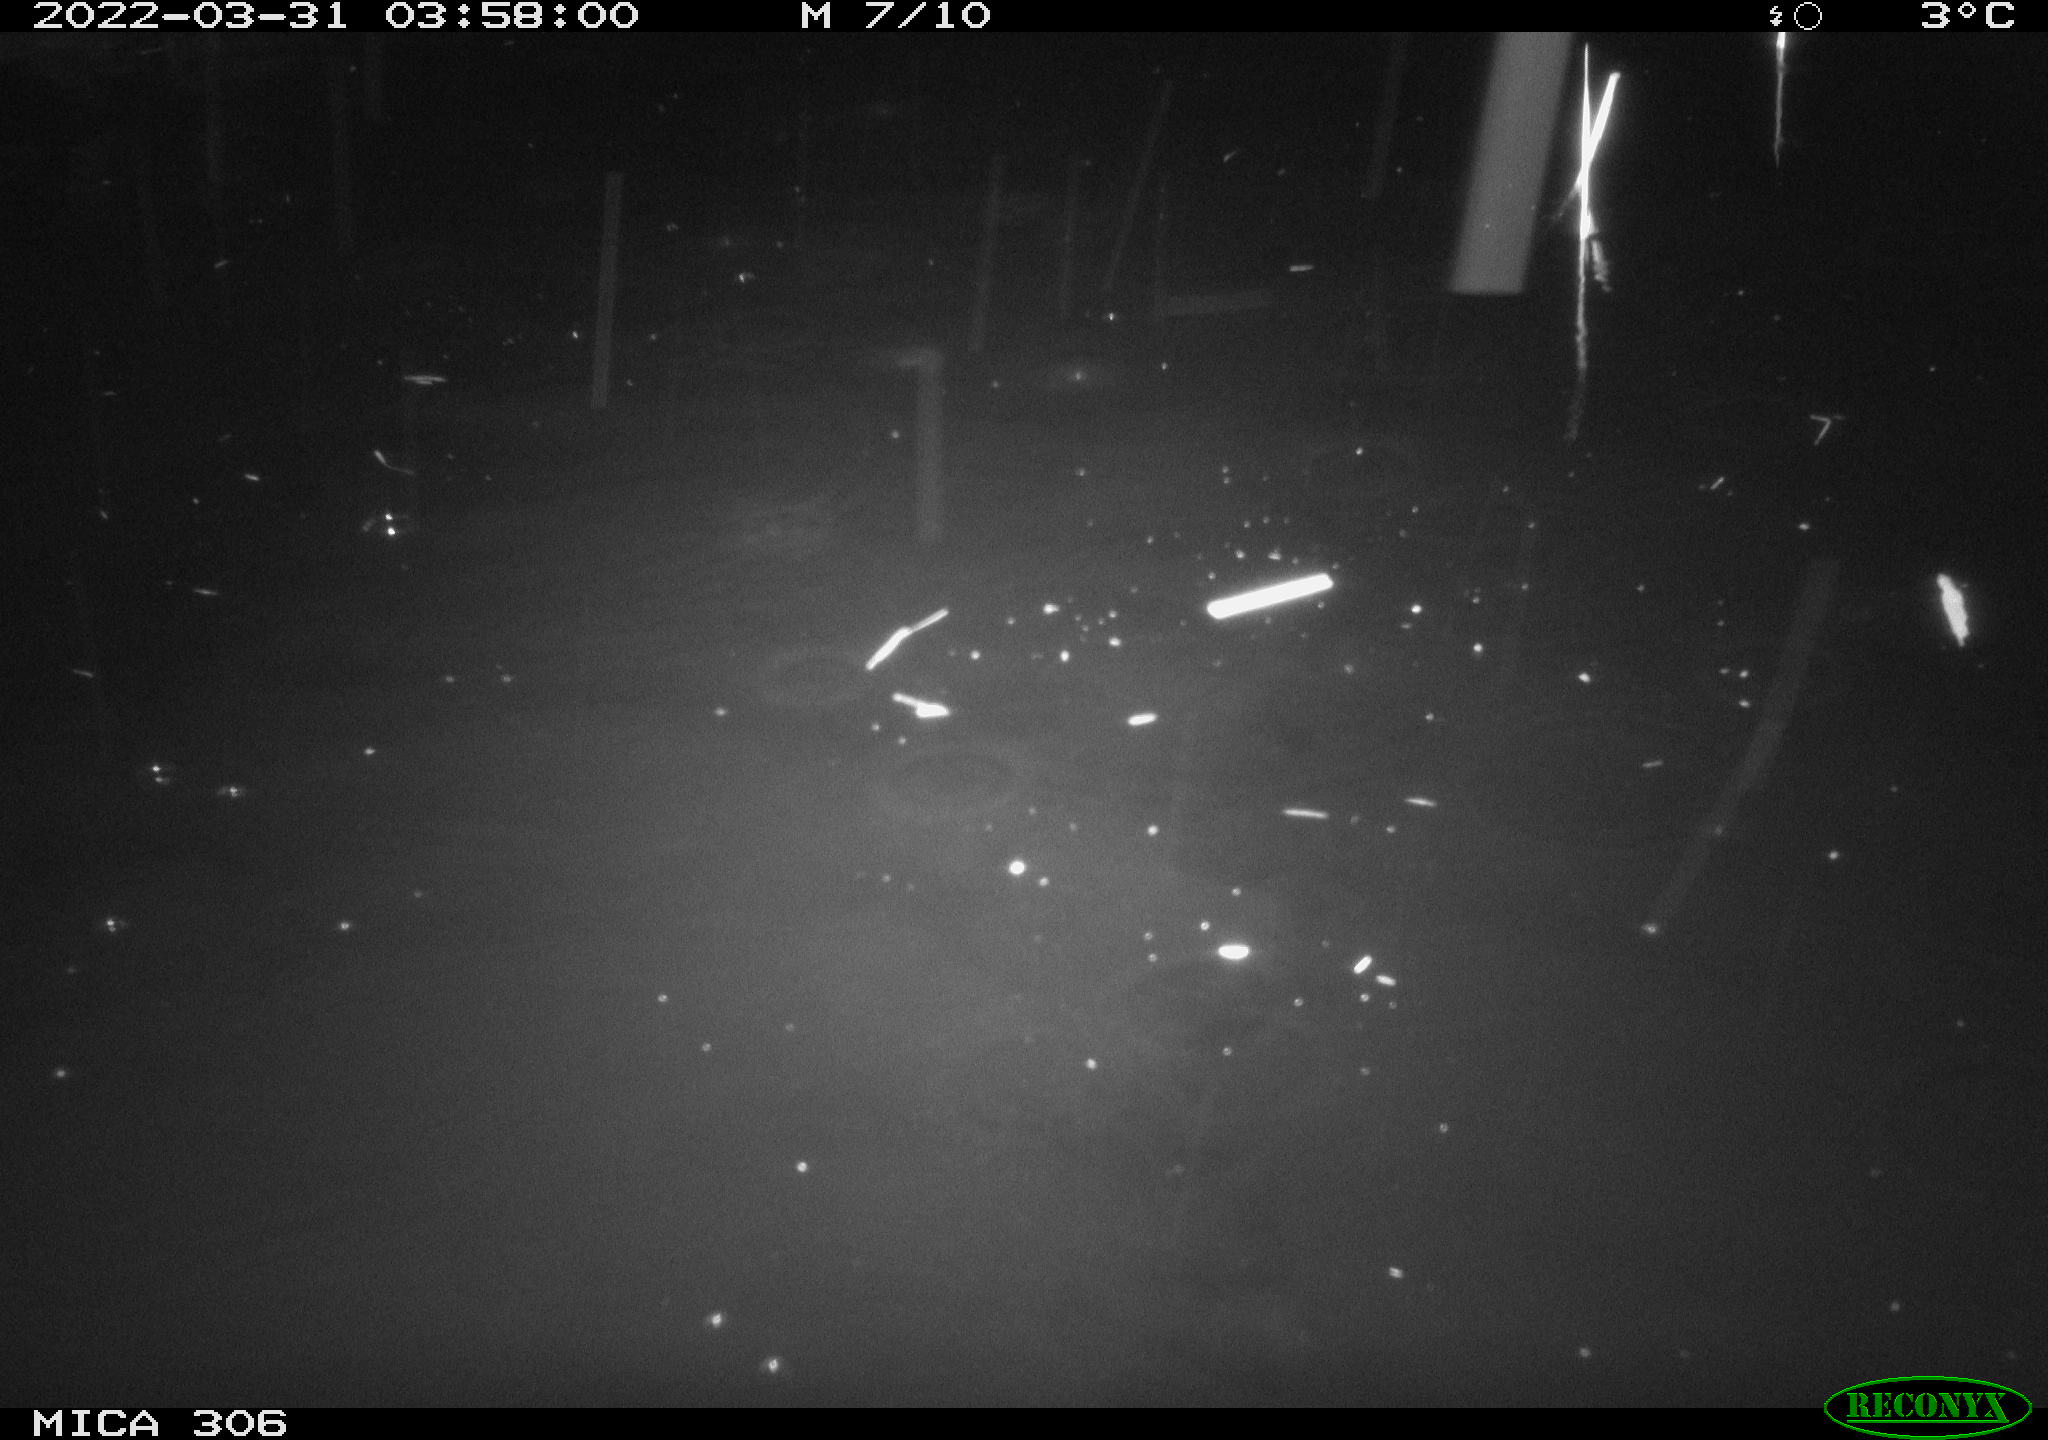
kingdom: Animalia
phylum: Chordata
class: Mammalia
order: Rodentia
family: Cricetidae
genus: Ondatra
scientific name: Ondatra zibethicus
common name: Muskrat
